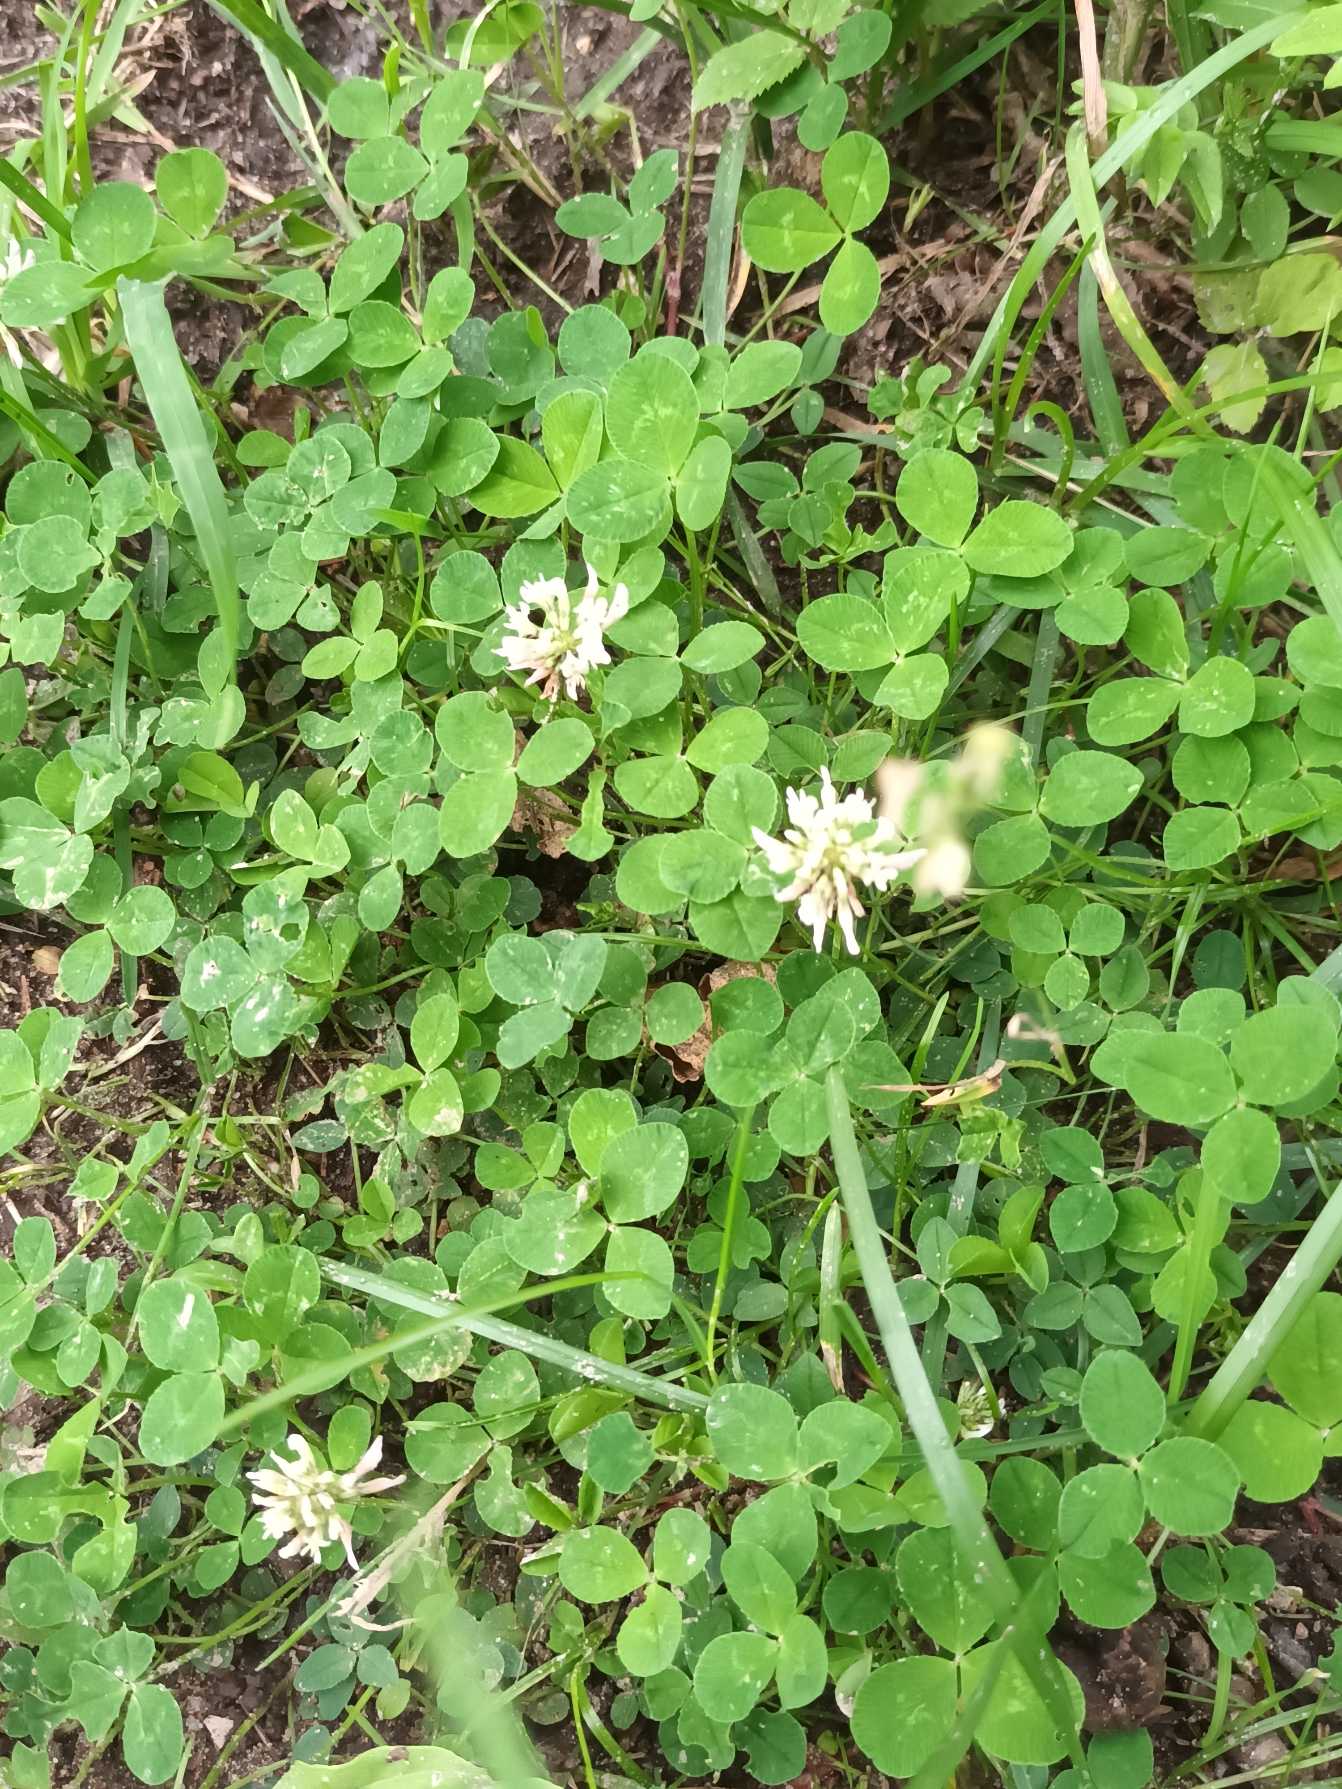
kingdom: Plantae
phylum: Tracheophyta
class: Magnoliopsida
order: Fabales
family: Fabaceae
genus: Trifolium
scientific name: Trifolium repens
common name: Hvid-kløver
